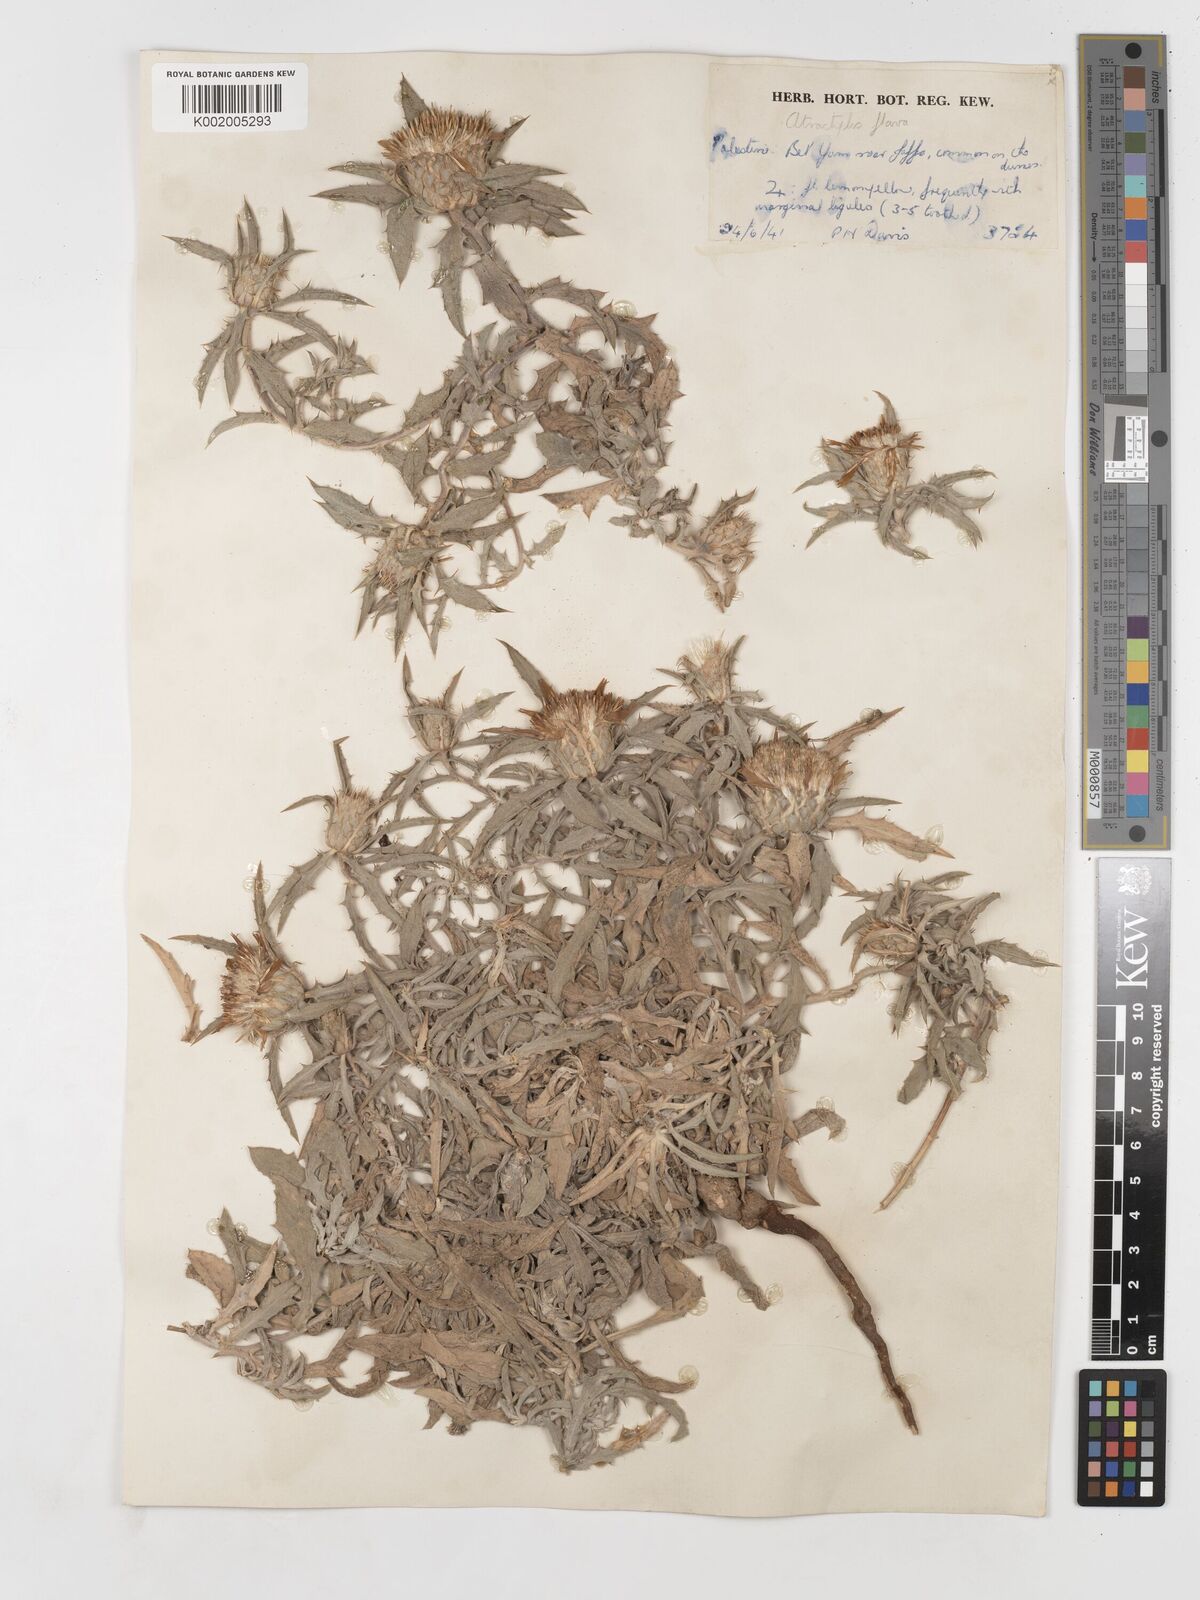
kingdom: Plantae
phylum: Tracheophyta
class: Magnoliopsida
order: Asterales
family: Asteraceae
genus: Atractylis
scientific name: Atractylis carduus
